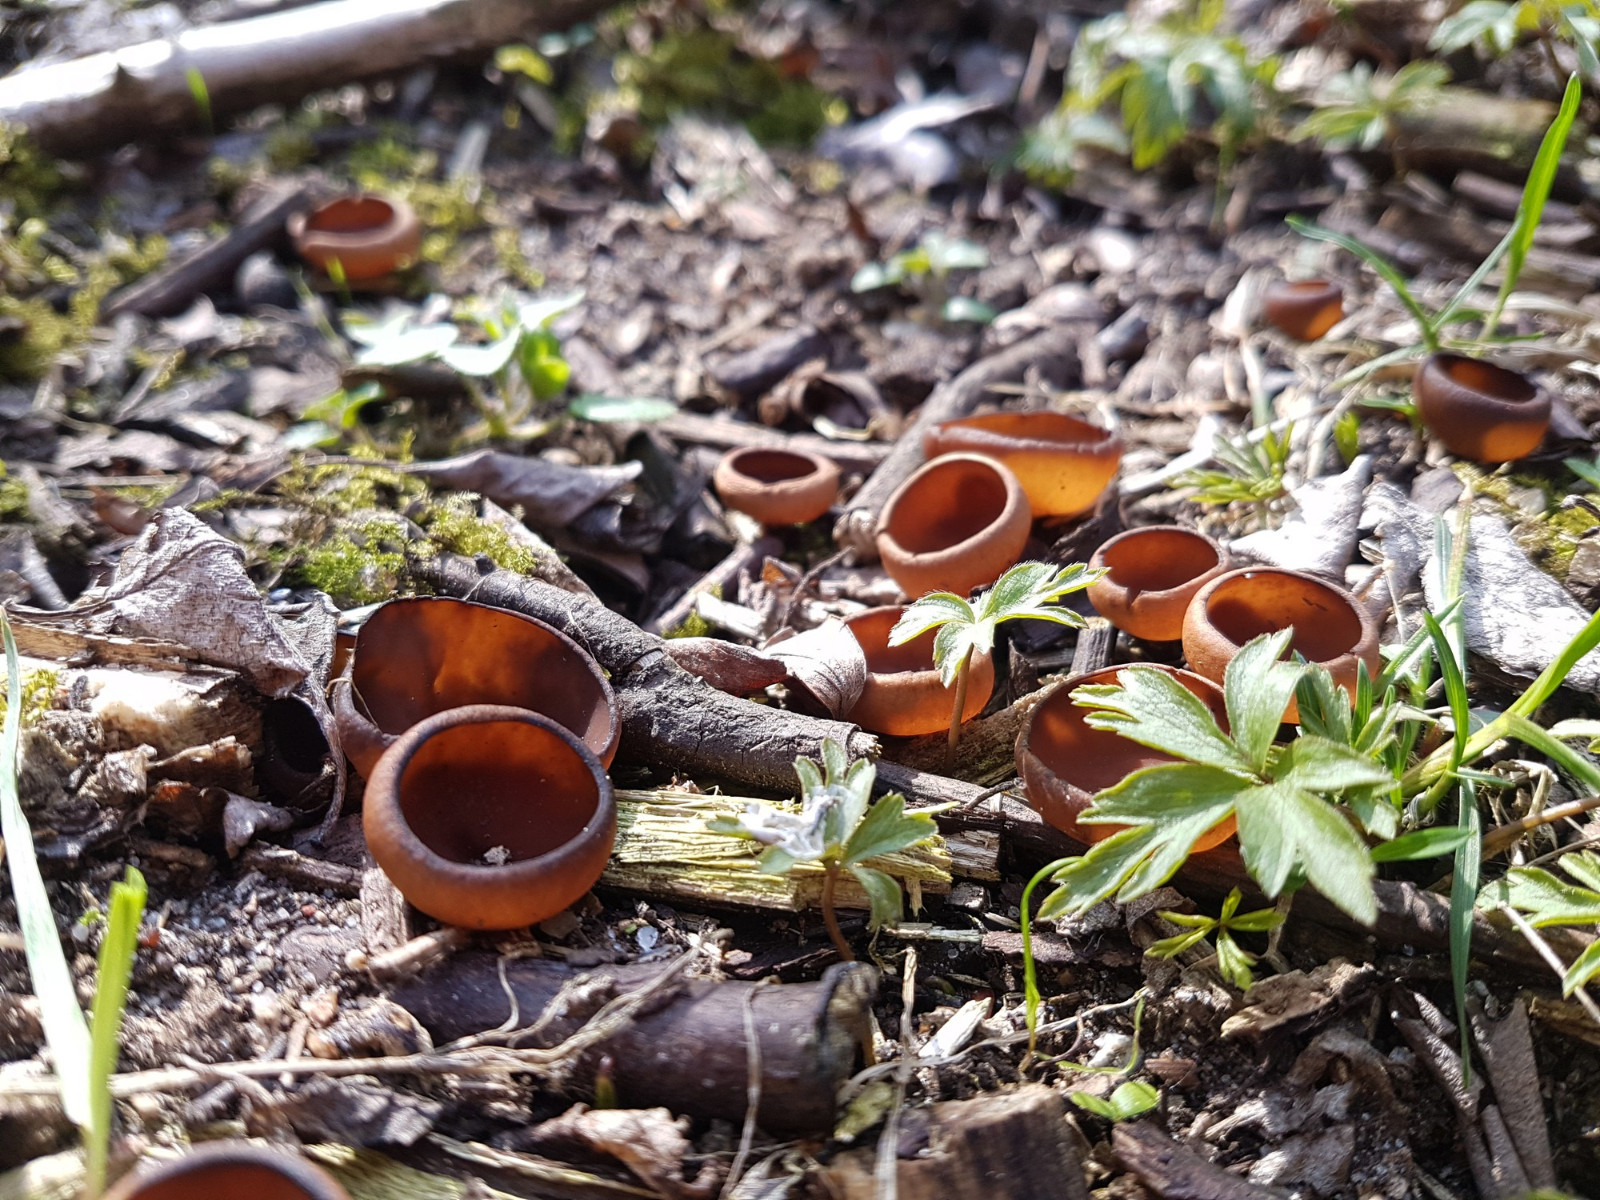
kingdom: Fungi
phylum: Ascomycota
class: Leotiomycetes
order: Helotiales
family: Sclerotiniaceae
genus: Dumontinia
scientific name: Dumontinia tuberosa
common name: anemone-knoldskive
